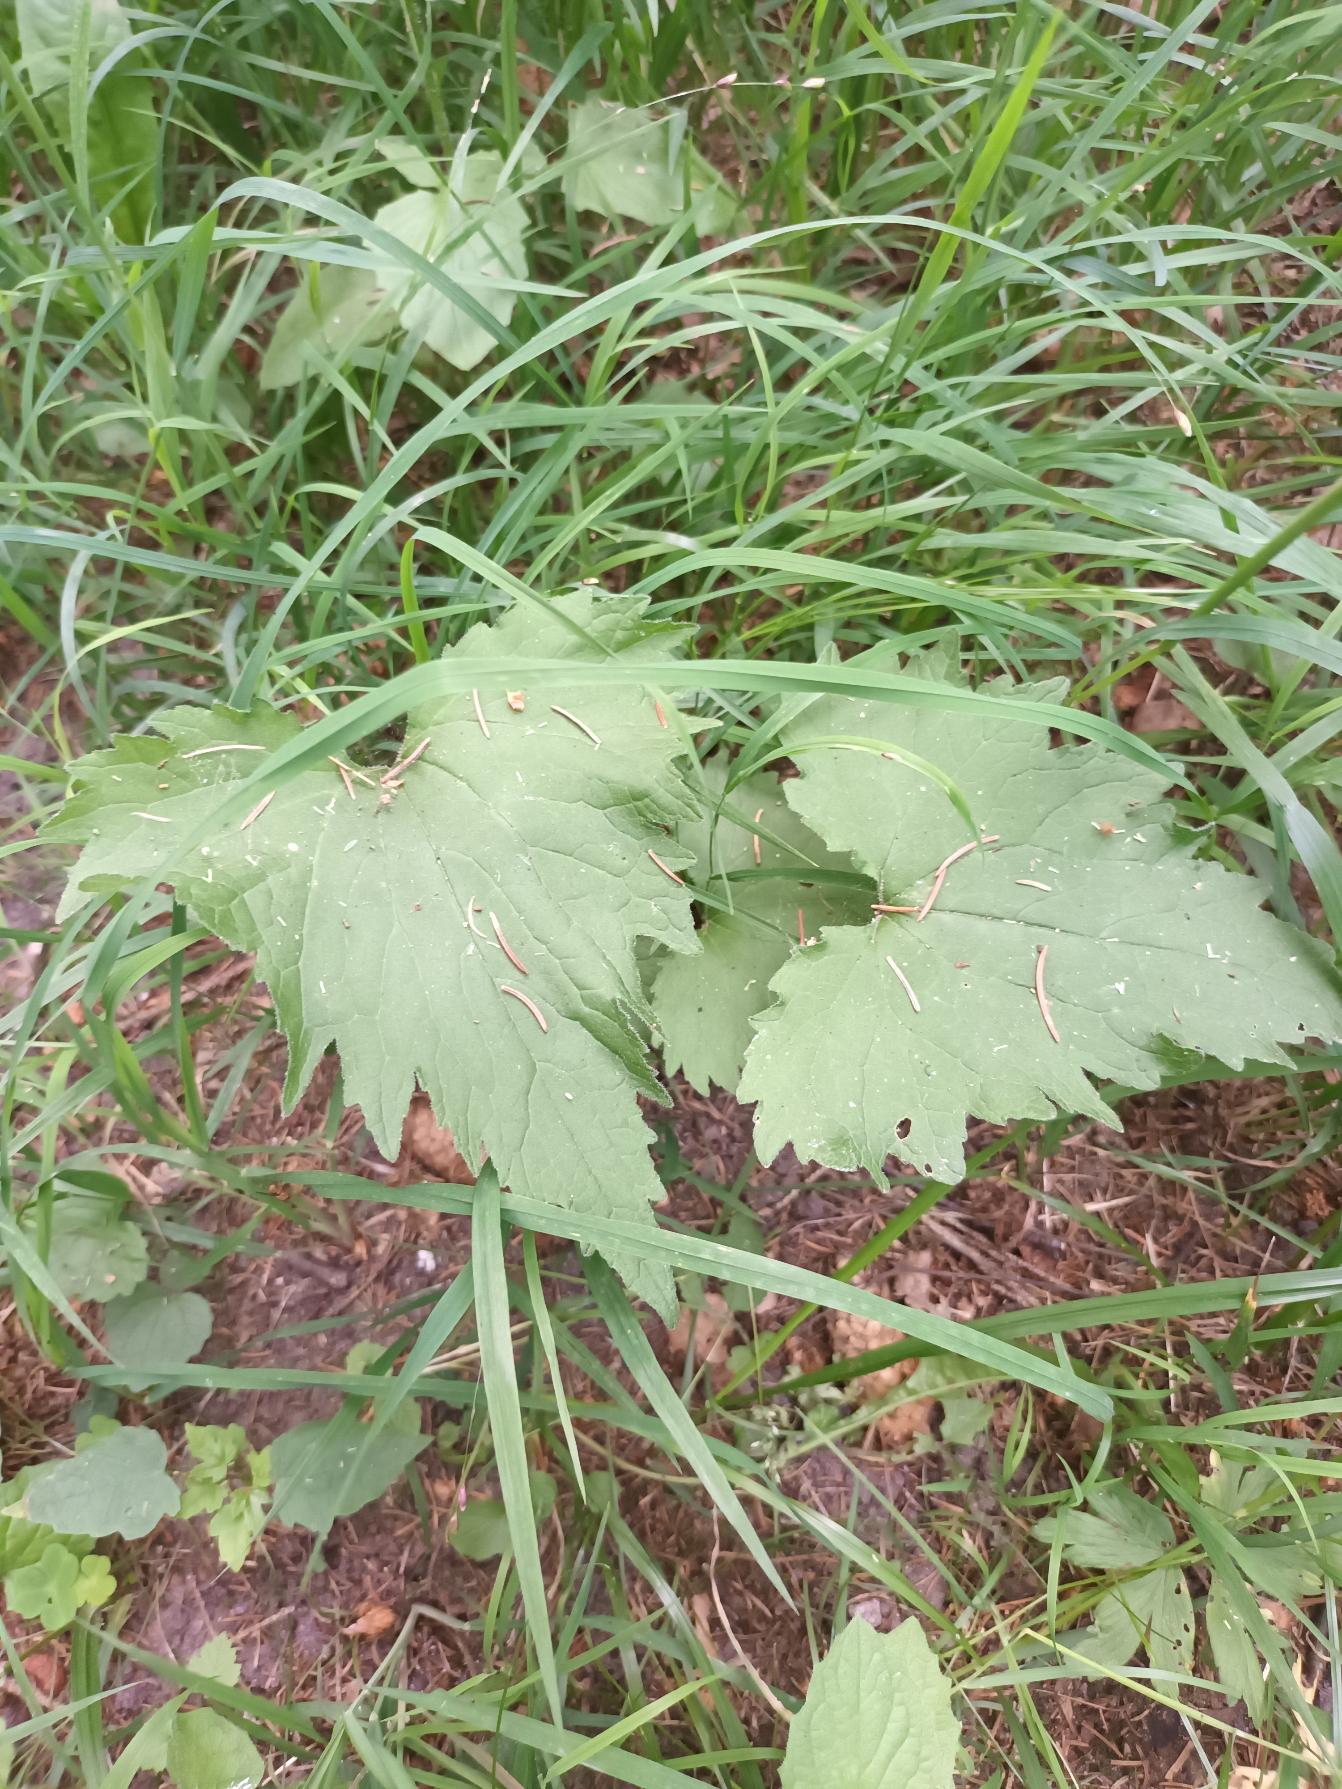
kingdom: Plantae
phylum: Tracheophyta
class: Magnoliopsida
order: Asterales
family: Campanulaceae
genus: Campanula
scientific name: Campanula trachelium
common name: Nælde-klokke
